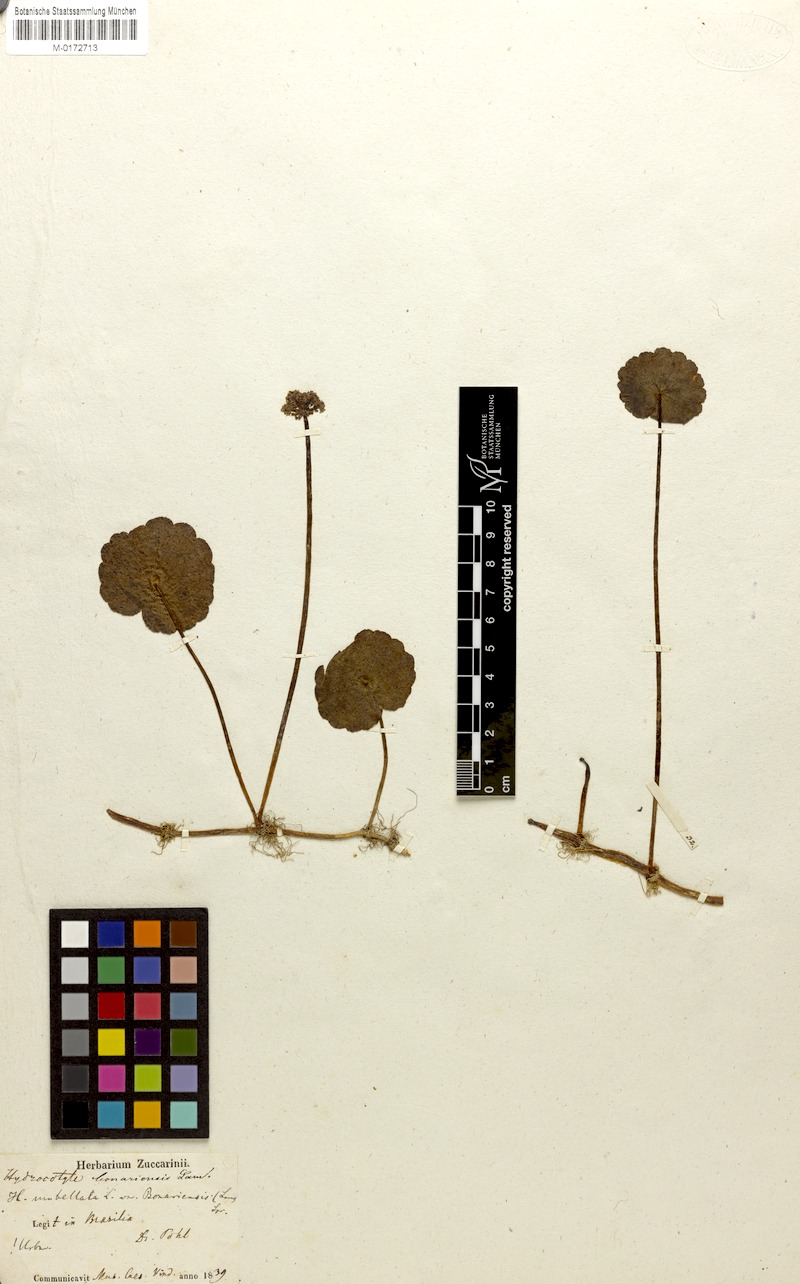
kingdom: Plantae
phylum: Tracheophyta
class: Magnoliopsida
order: Apiales
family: Araliaceae
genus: Hydrocotyle
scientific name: Hydrocotyle bonariensis
